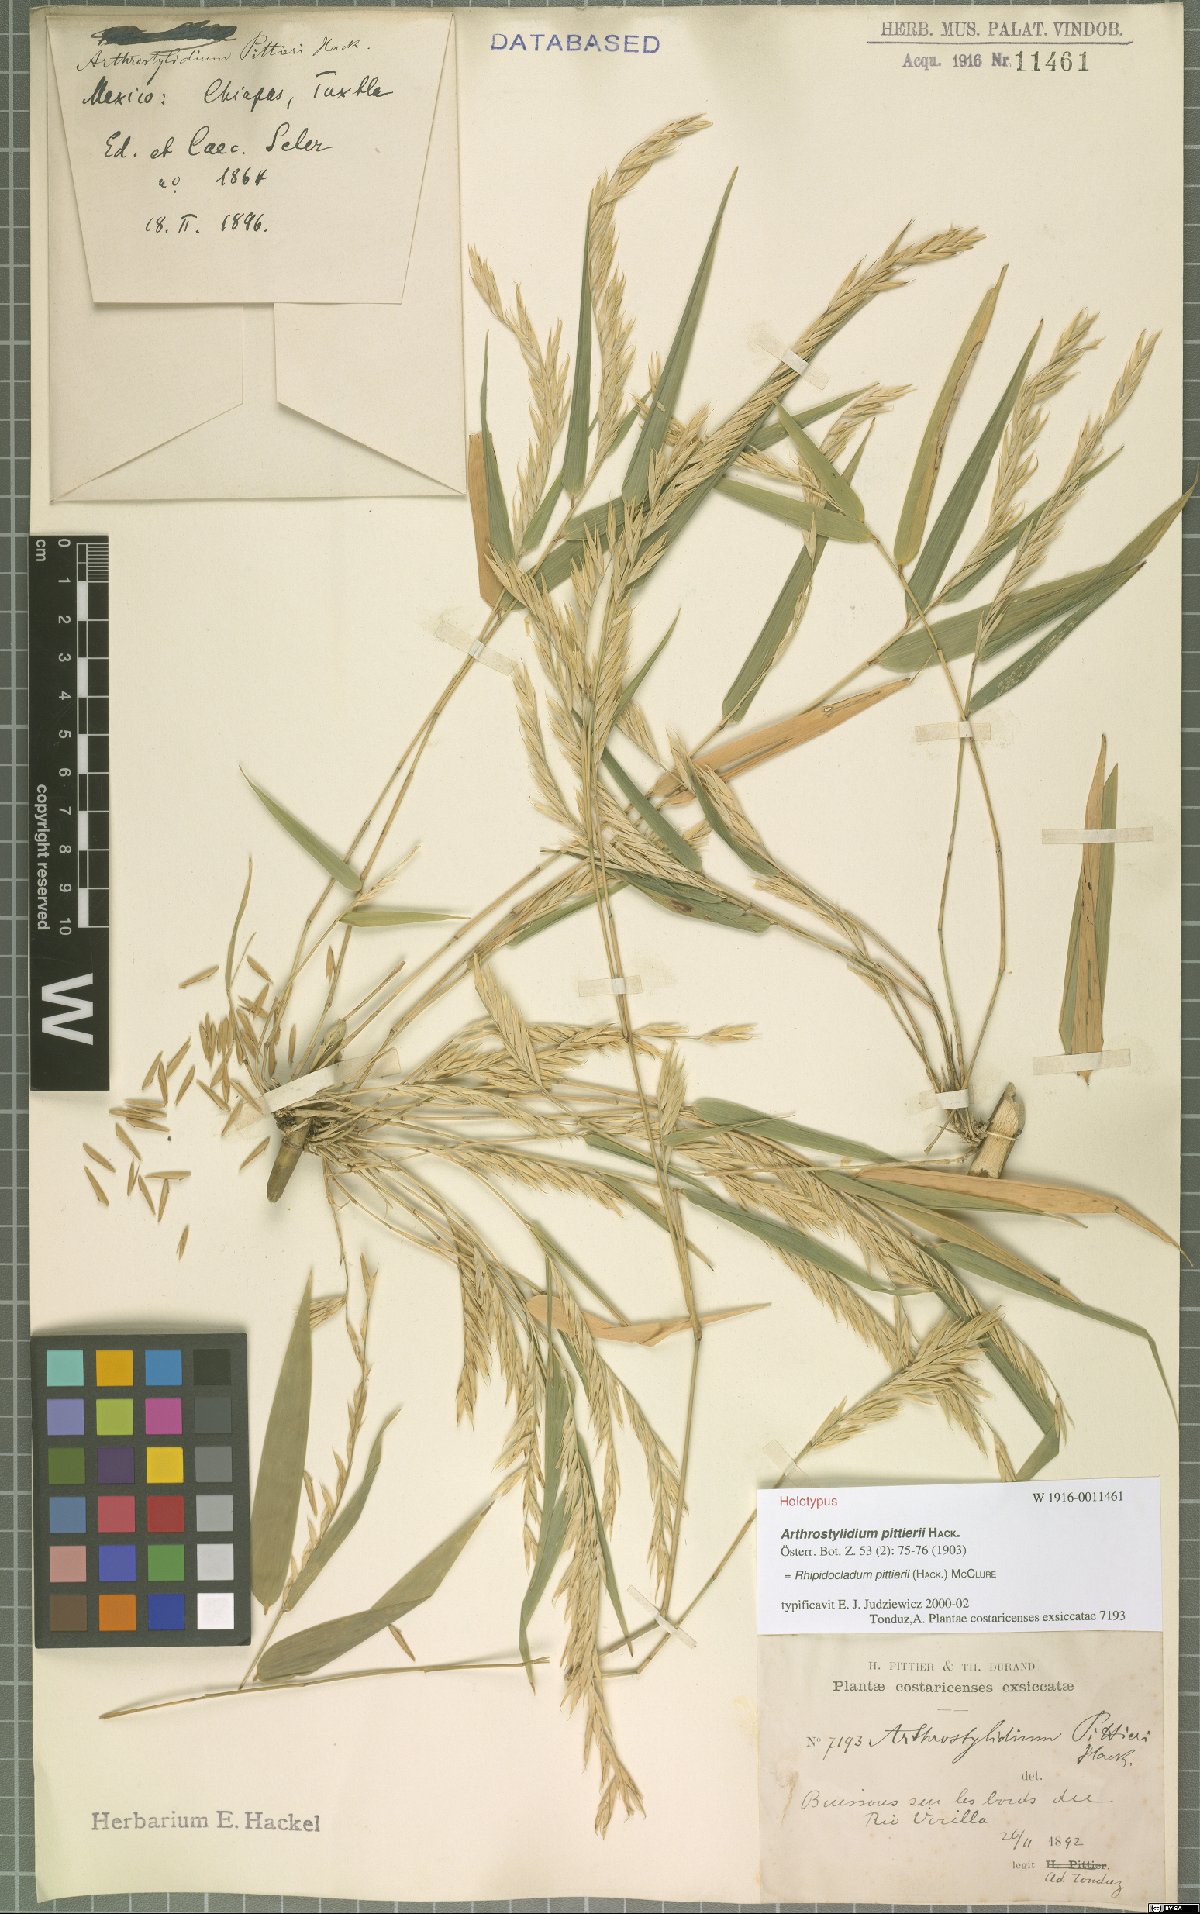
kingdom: Plantae
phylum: Tracheophyta
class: Liliopsida
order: Poales
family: Poaceae
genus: Rhipidocladum
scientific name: Rhipidocladum pittieri
